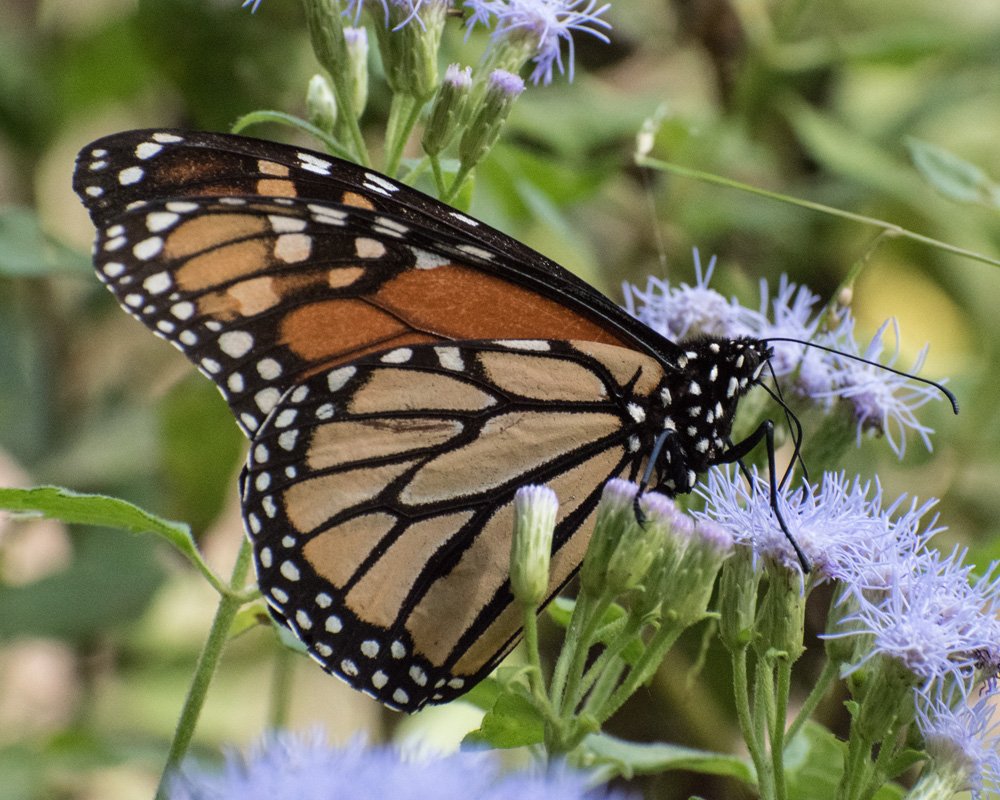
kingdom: Animalia
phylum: Arthropoda
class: Insecta
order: Lepidoptera
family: Nymphalidae
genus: Danaus
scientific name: Danaus plexippus
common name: Monarch
